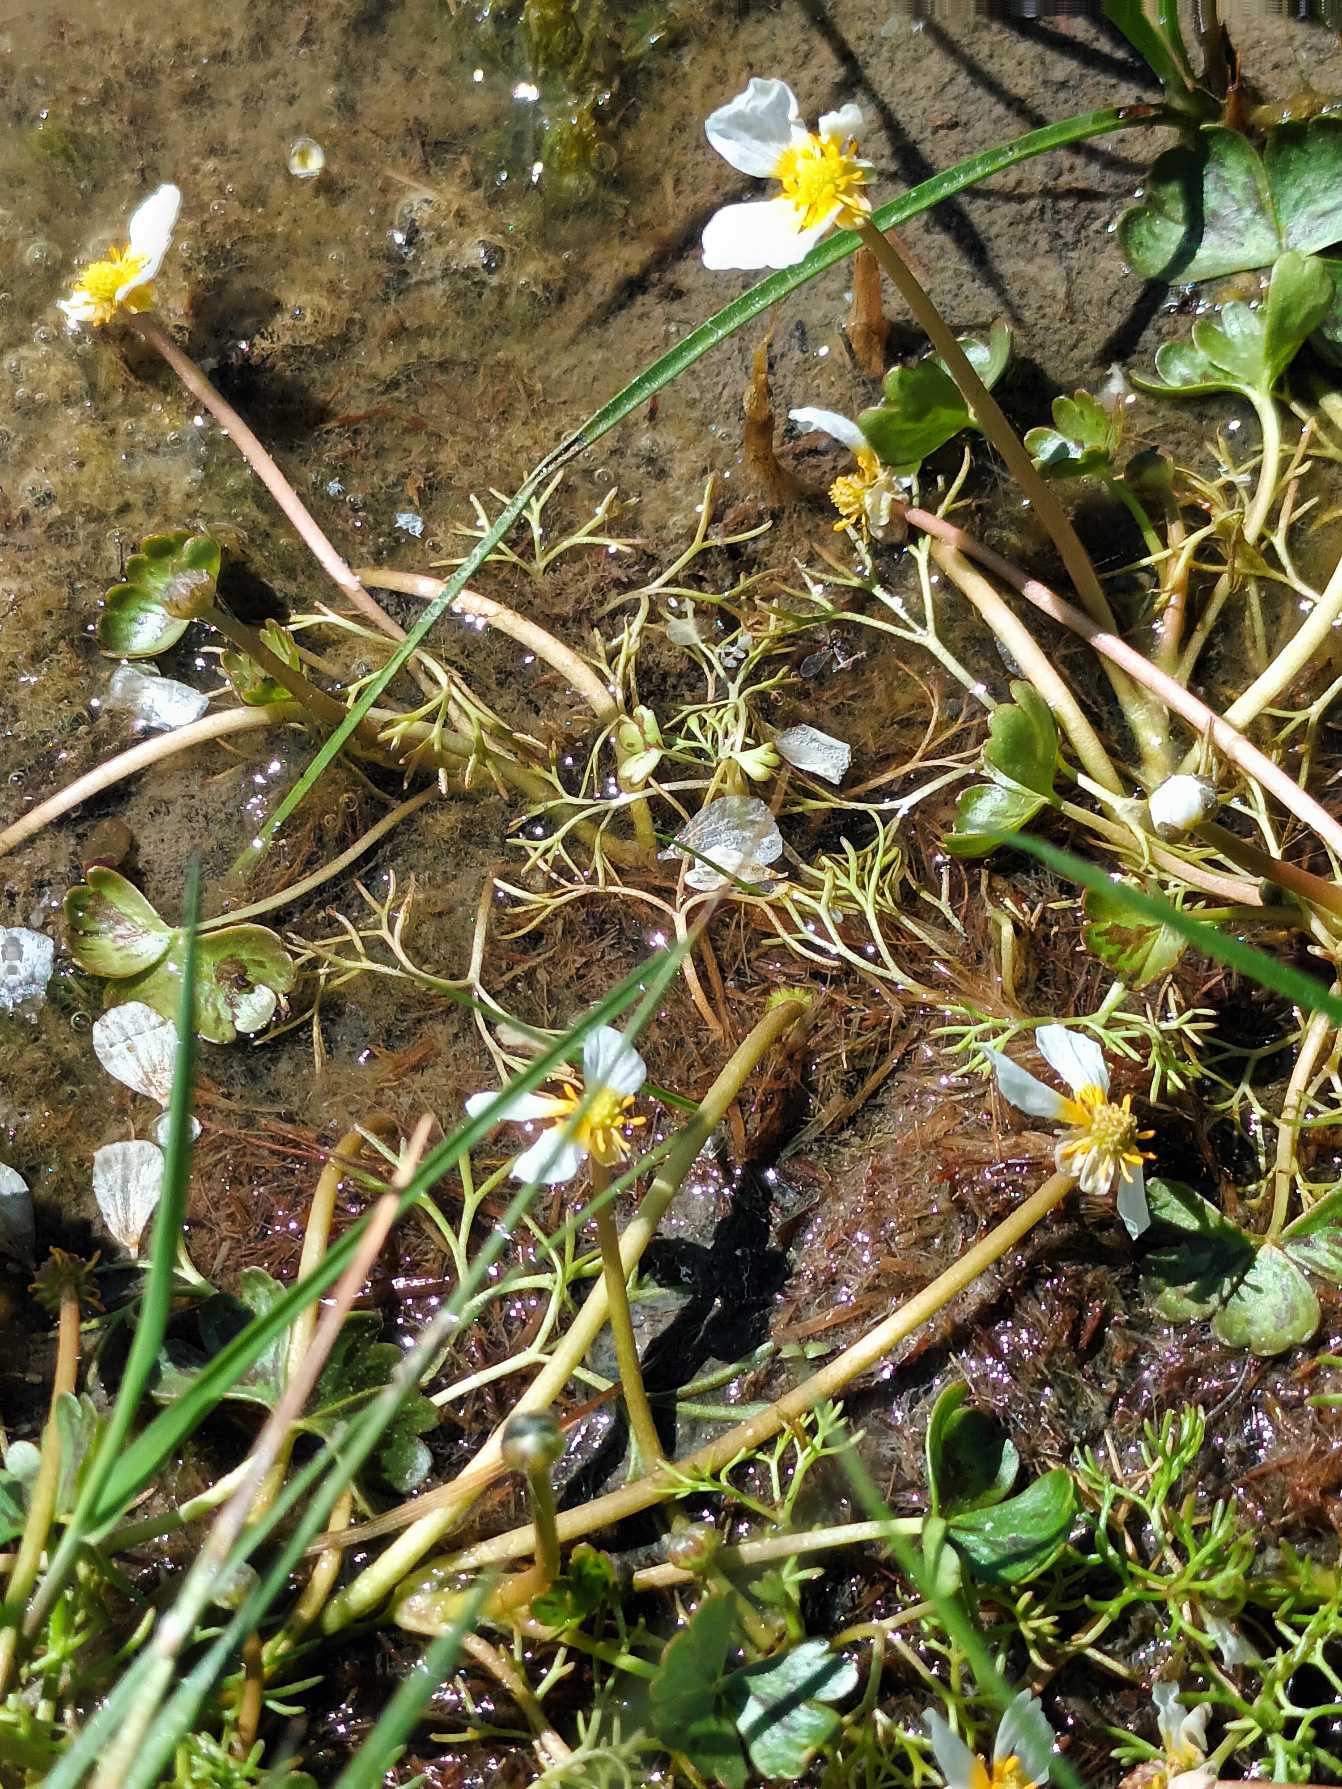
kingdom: Plantae
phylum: Tracheophyta
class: Magnoliopsida
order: Ranunculales
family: Ranunculaceae
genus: Ranunculus
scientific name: Ranunculus peltatus
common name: Strand-vandranunkel
